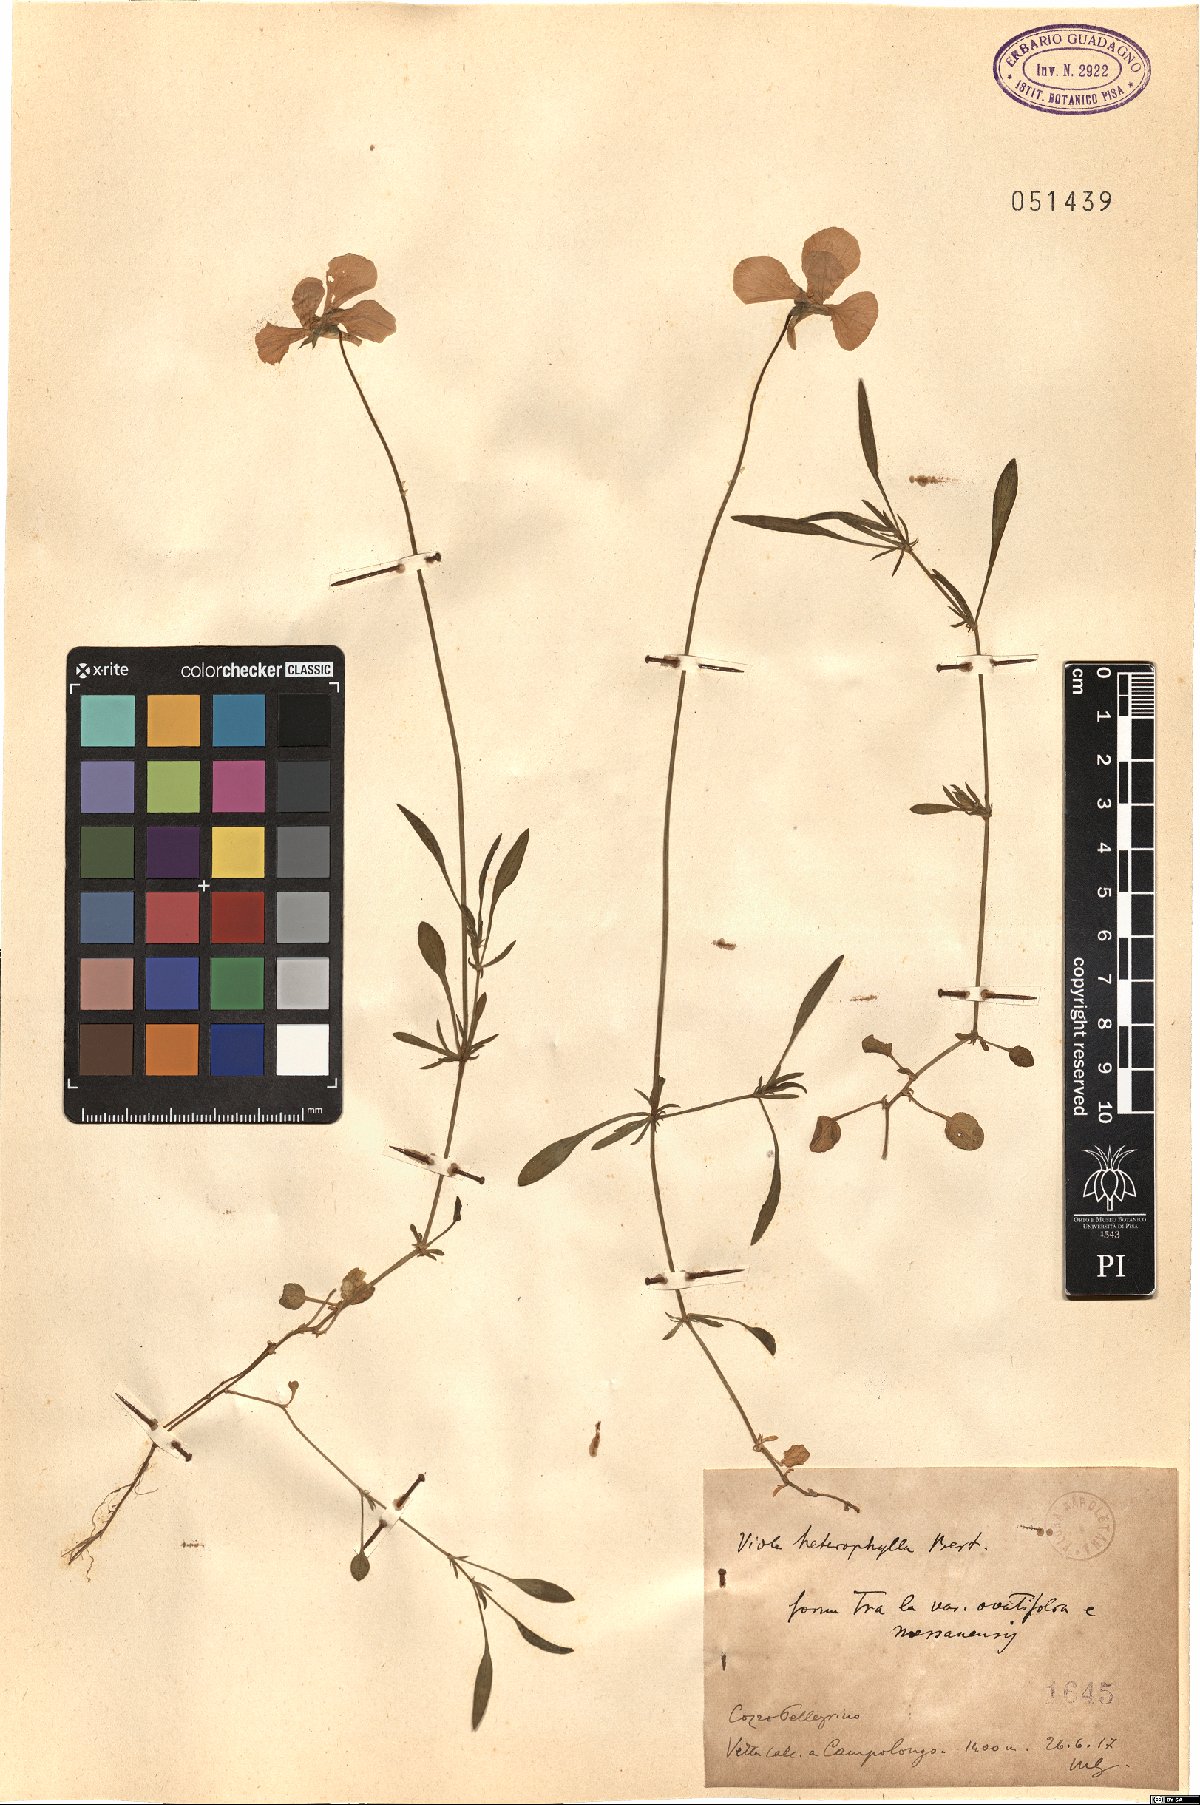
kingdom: Plantae
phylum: Tracheophyta
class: Magnoliopsida
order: Malpighiales
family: Violaceae
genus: Viola
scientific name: Viola bertolonii
